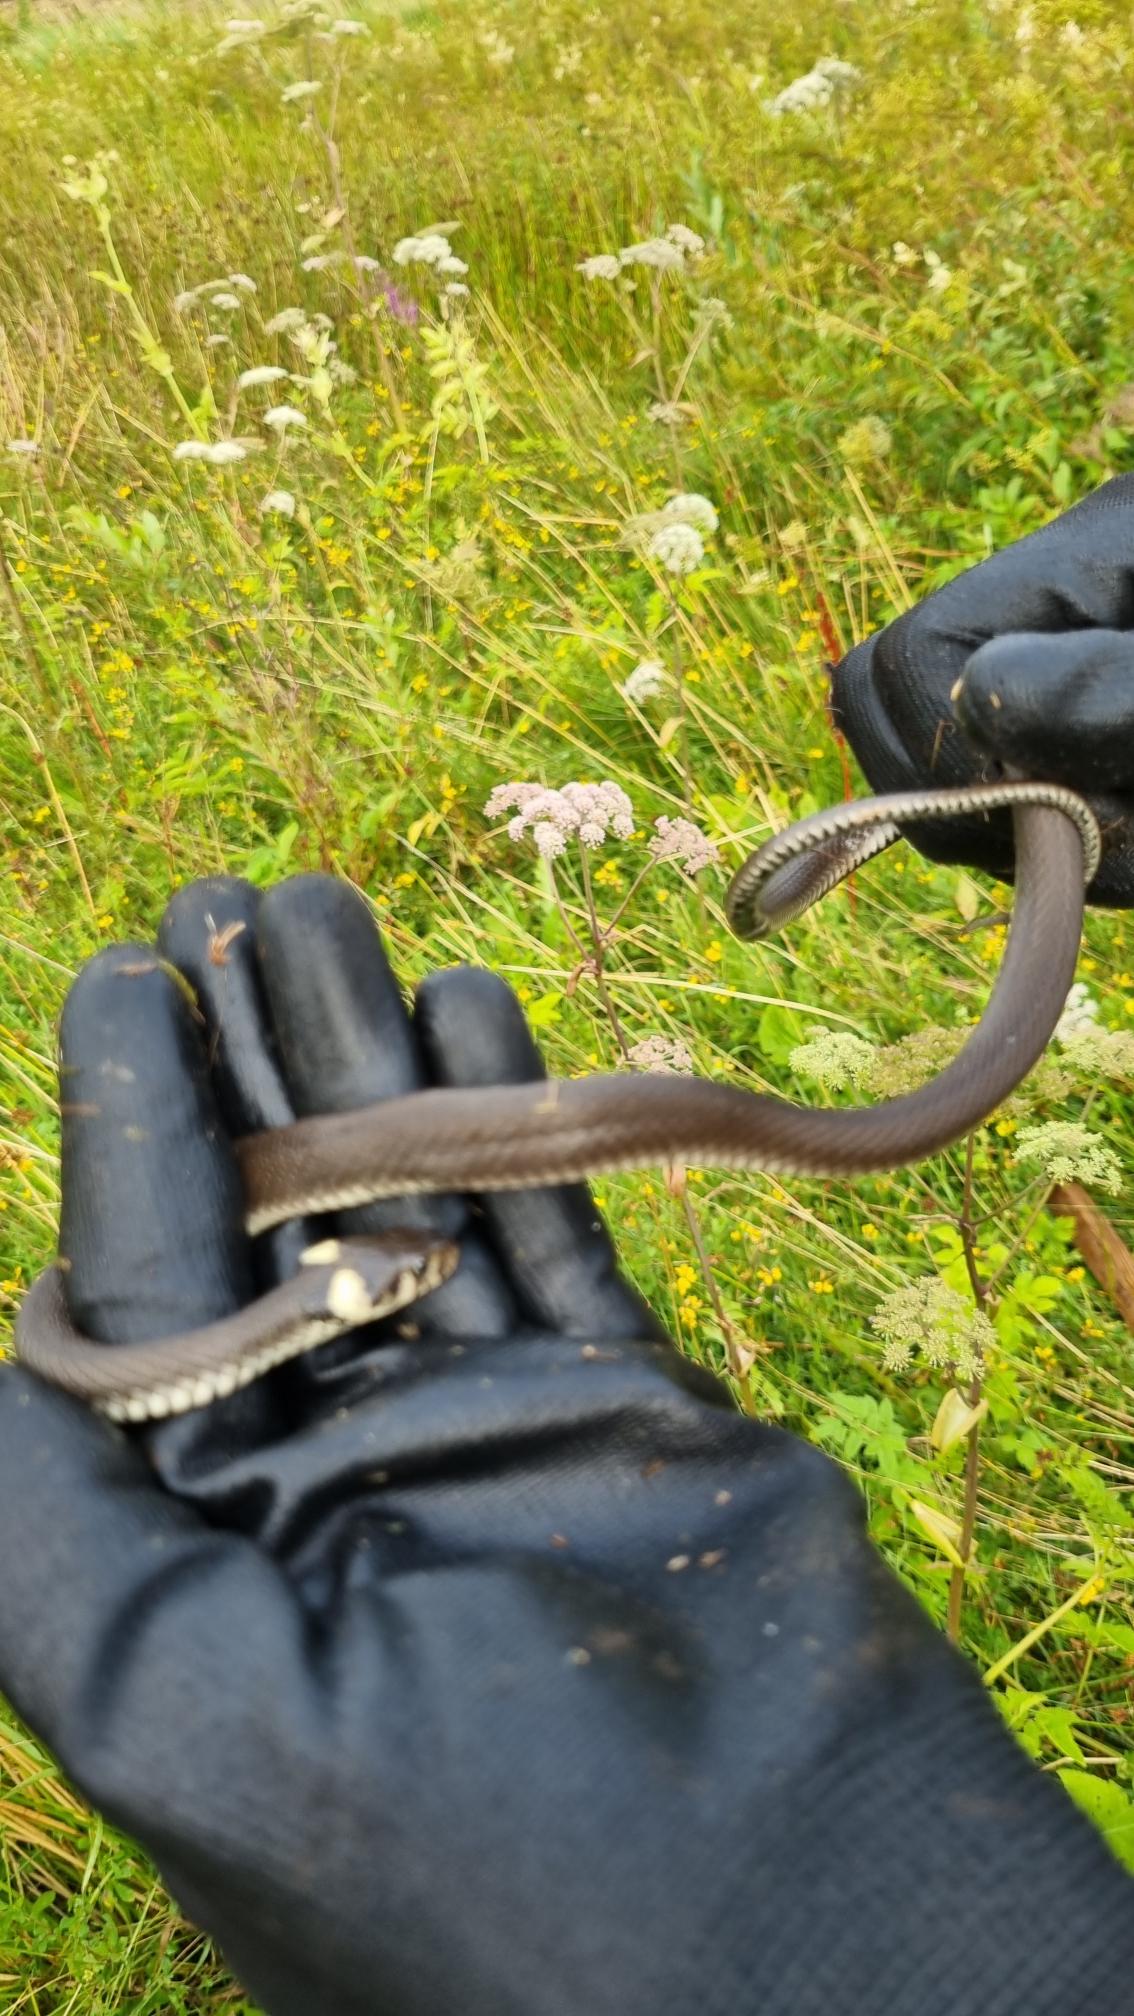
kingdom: Animalia
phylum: Chordata
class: Squamata
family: Colubridae
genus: Natrix
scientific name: Natrix natrix
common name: Snog
